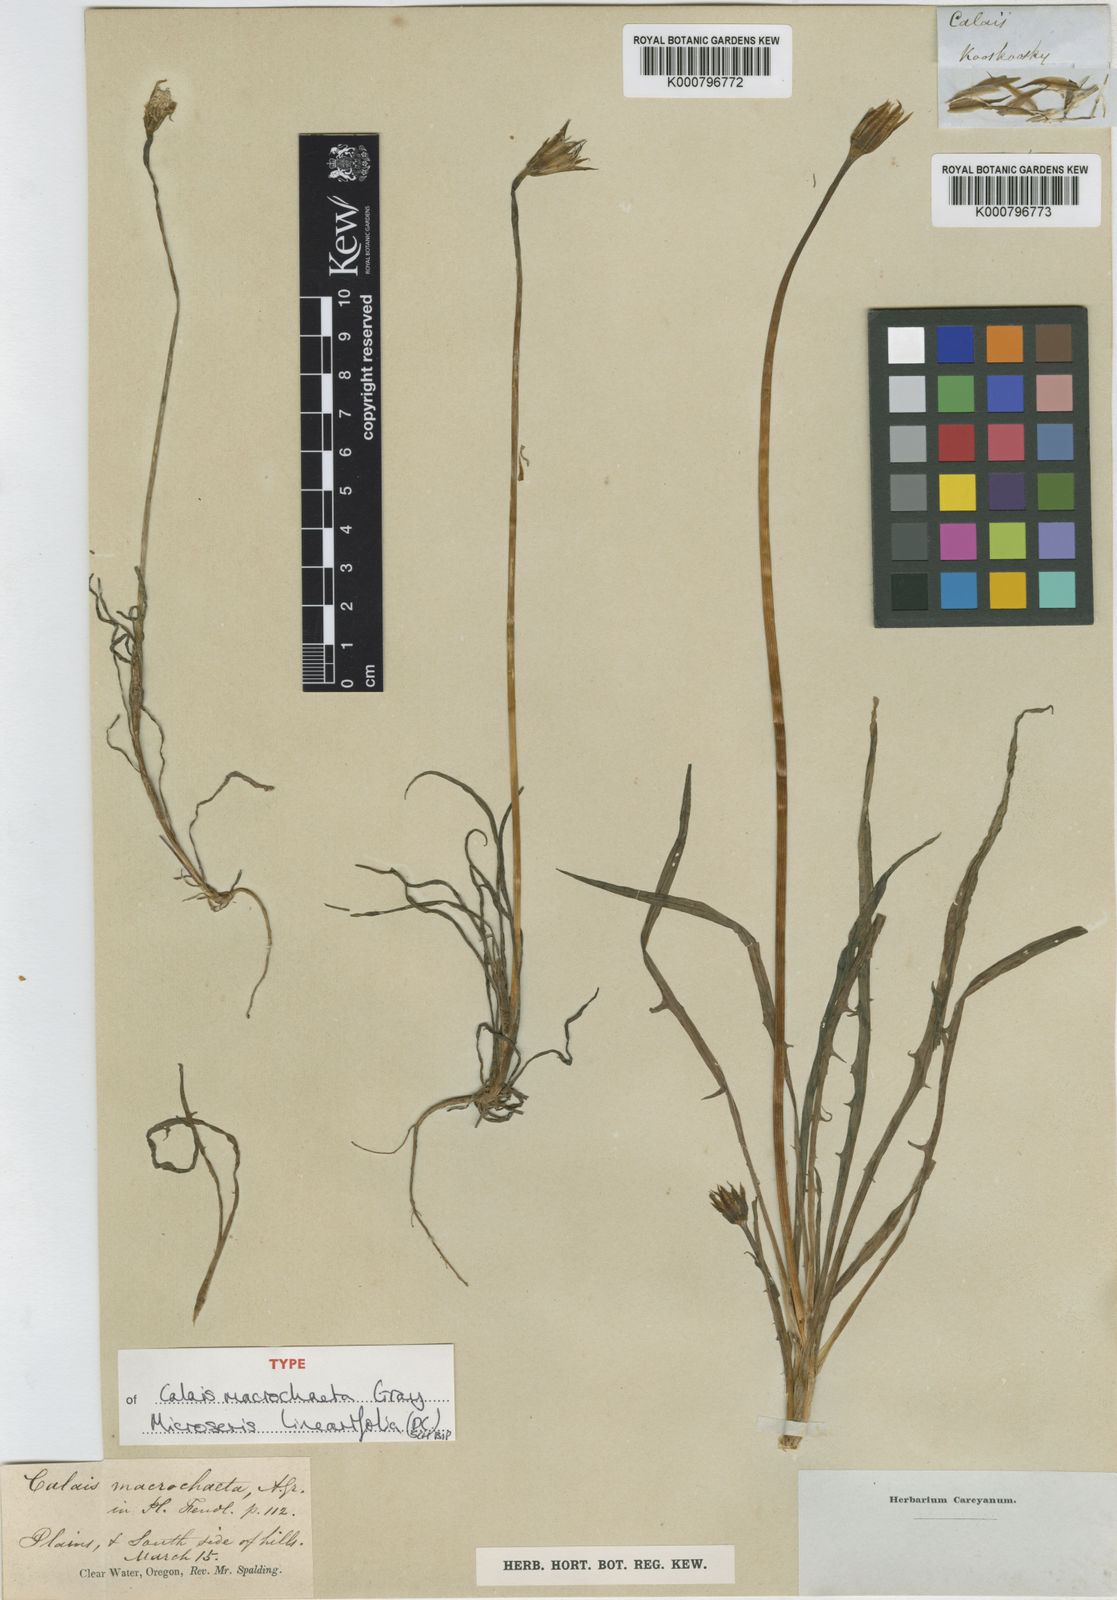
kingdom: Plantae
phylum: Tracheophyta
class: Magnoliopsida
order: Asterales
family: Asteraceae
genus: Microseris
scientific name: Microseris lindleyi
